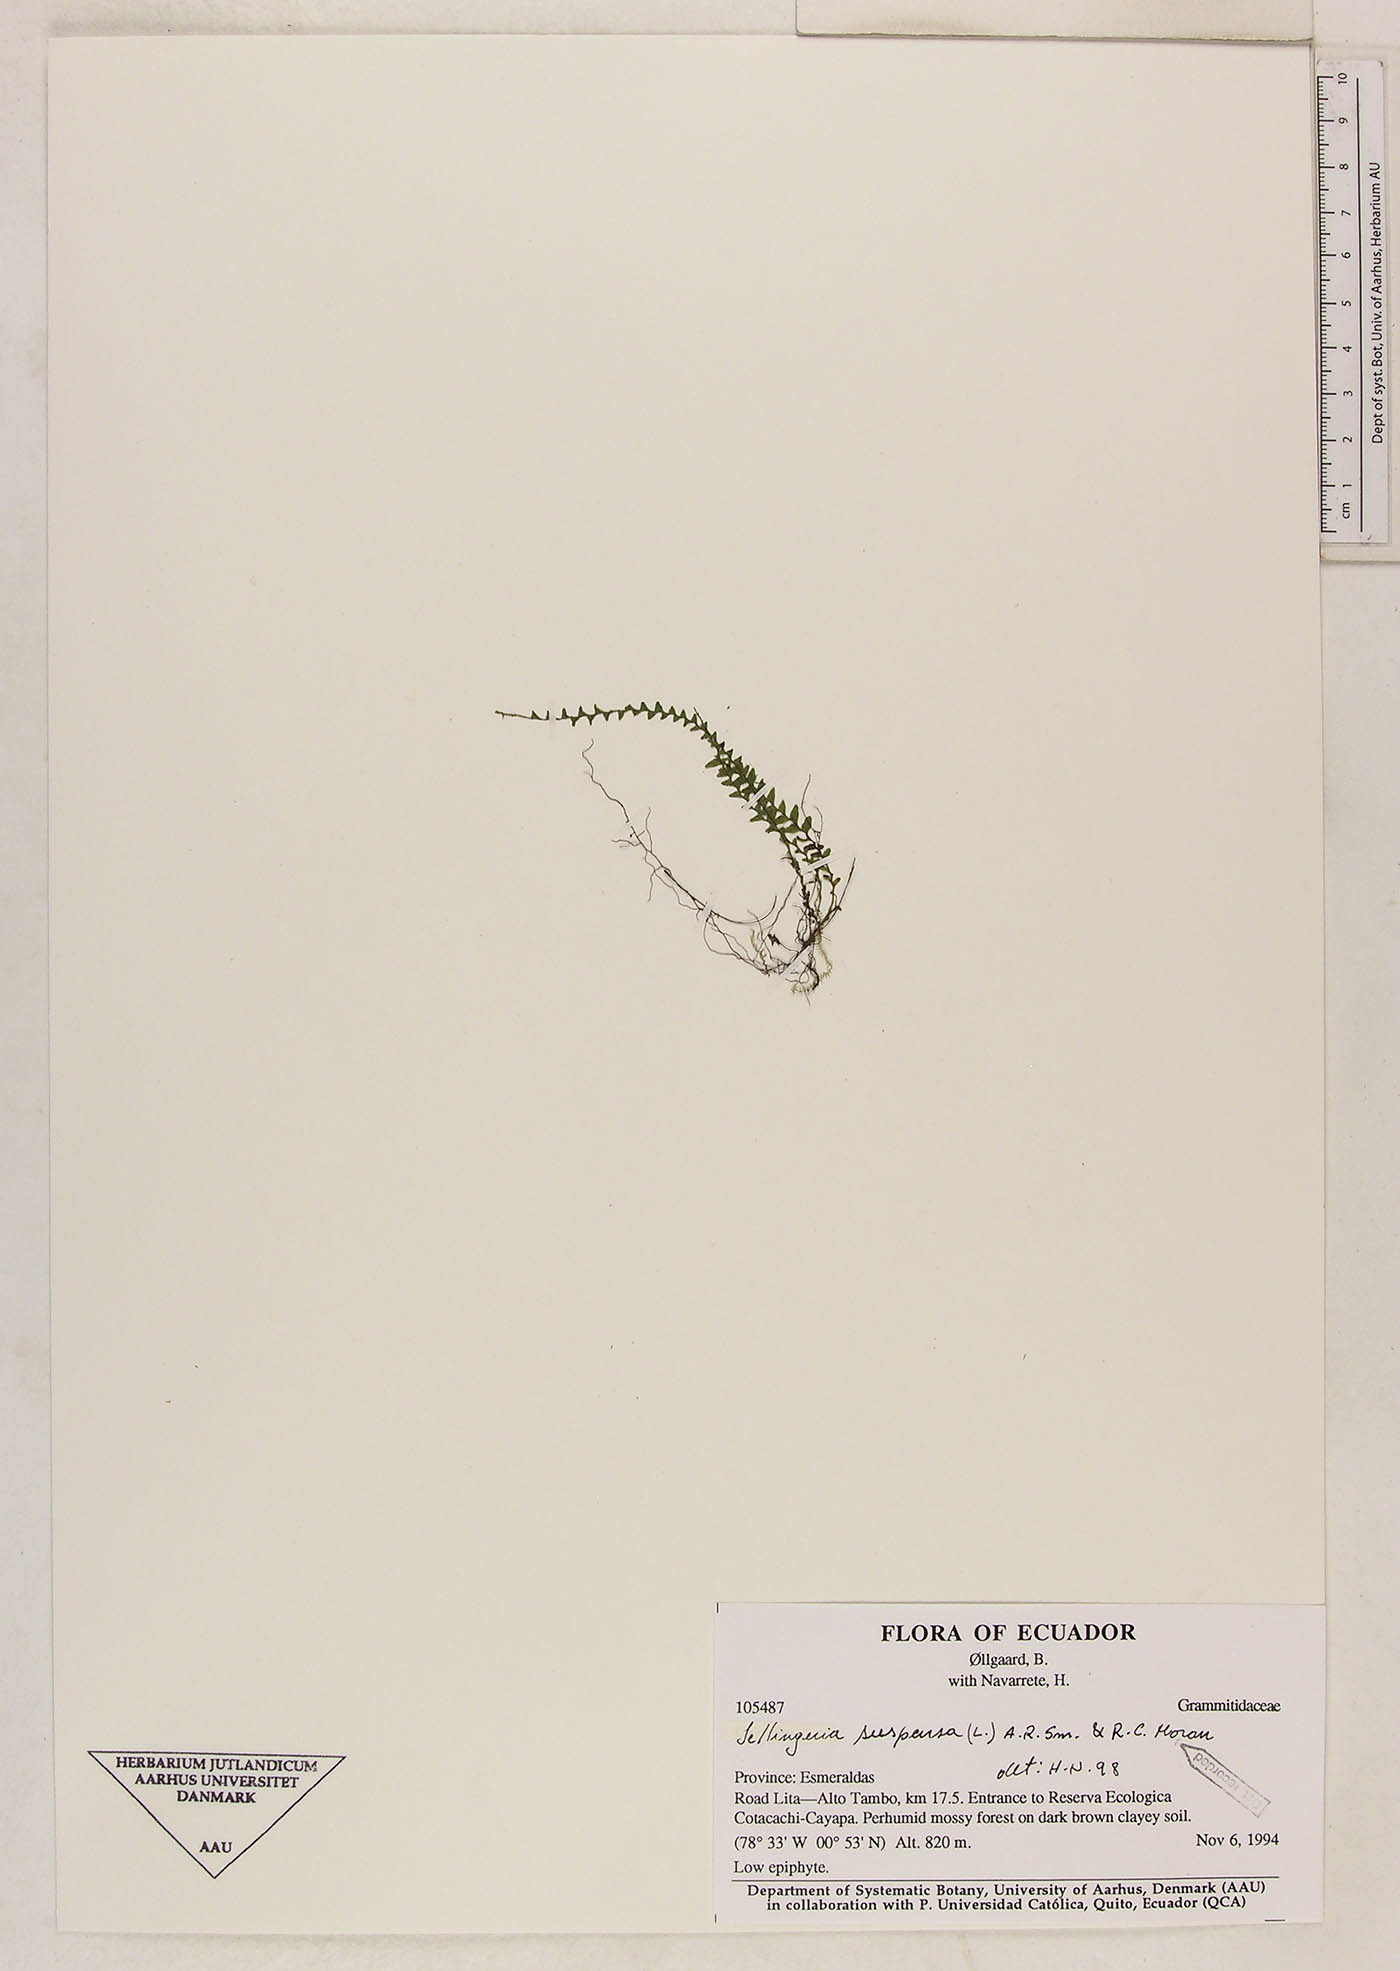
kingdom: Plantae
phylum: Tracheophyta
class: Polypodiopsida
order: Polypodiales
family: Polypodiaceae
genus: Lellingeria
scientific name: Lellingeria suspensa
